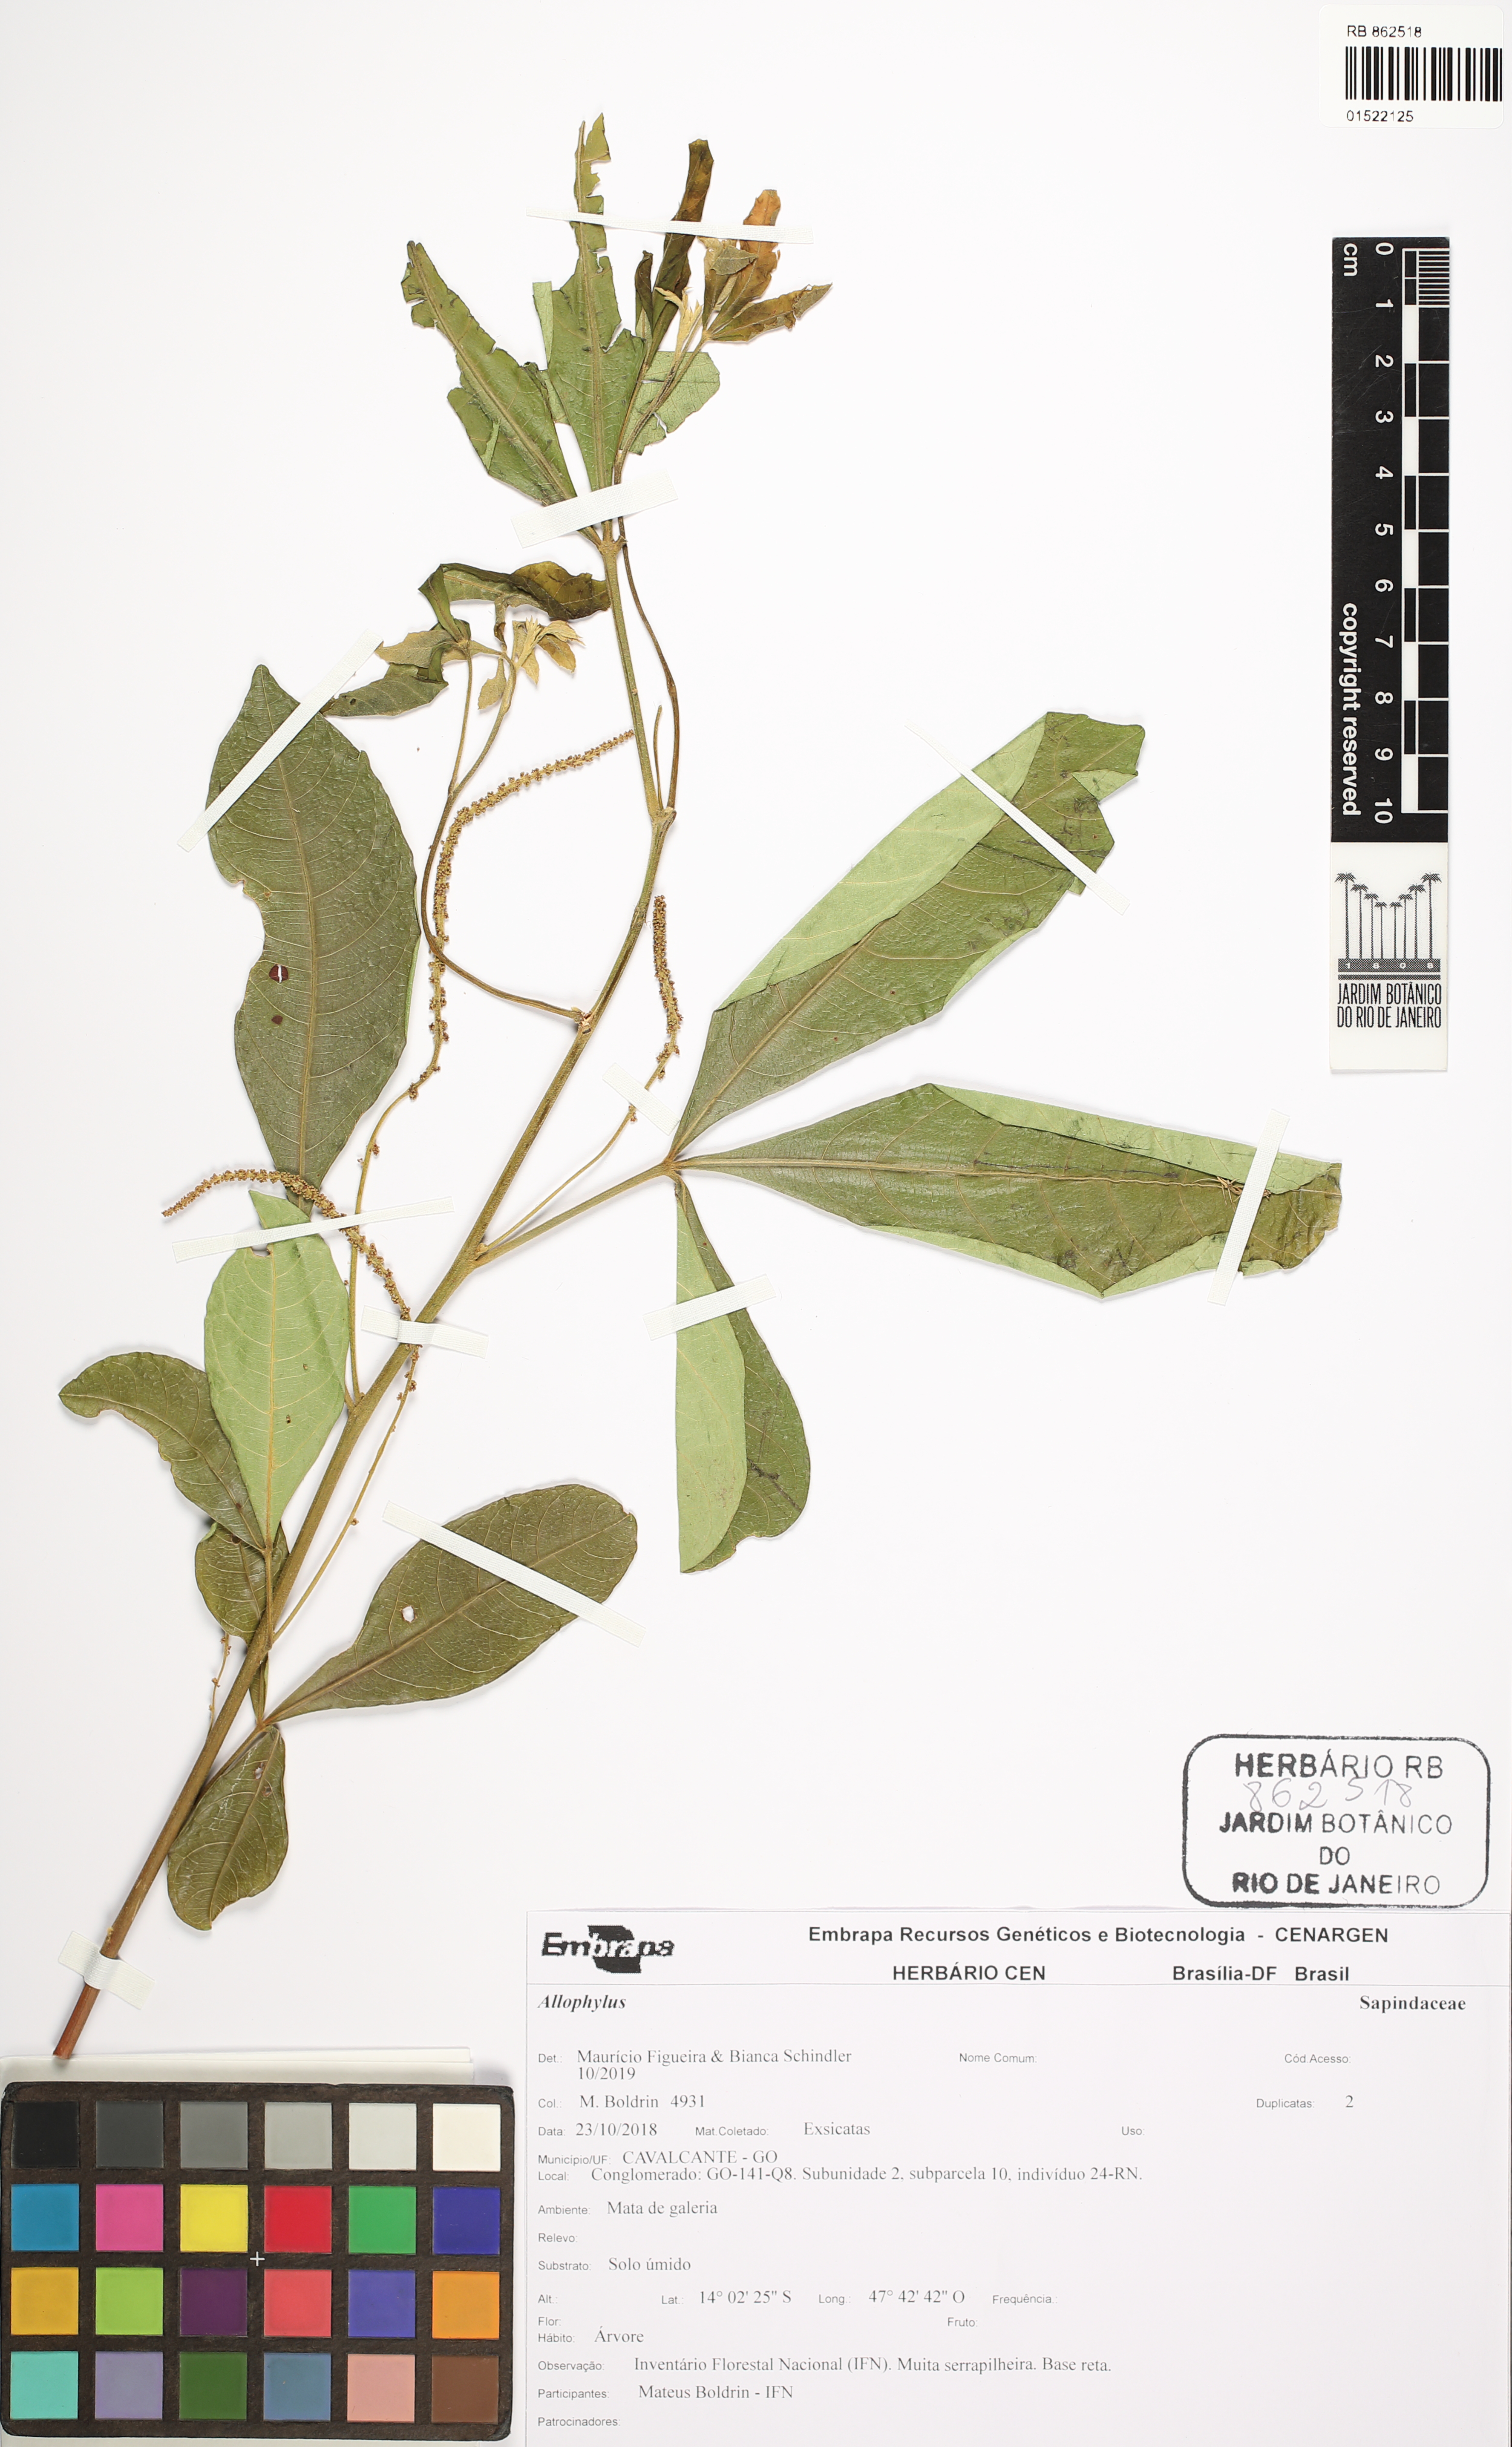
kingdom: Plantae
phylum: Tracheophyta
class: Magnoliopsida
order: Sapindales
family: Sapindaceae
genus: Allophylus
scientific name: Allophylus
